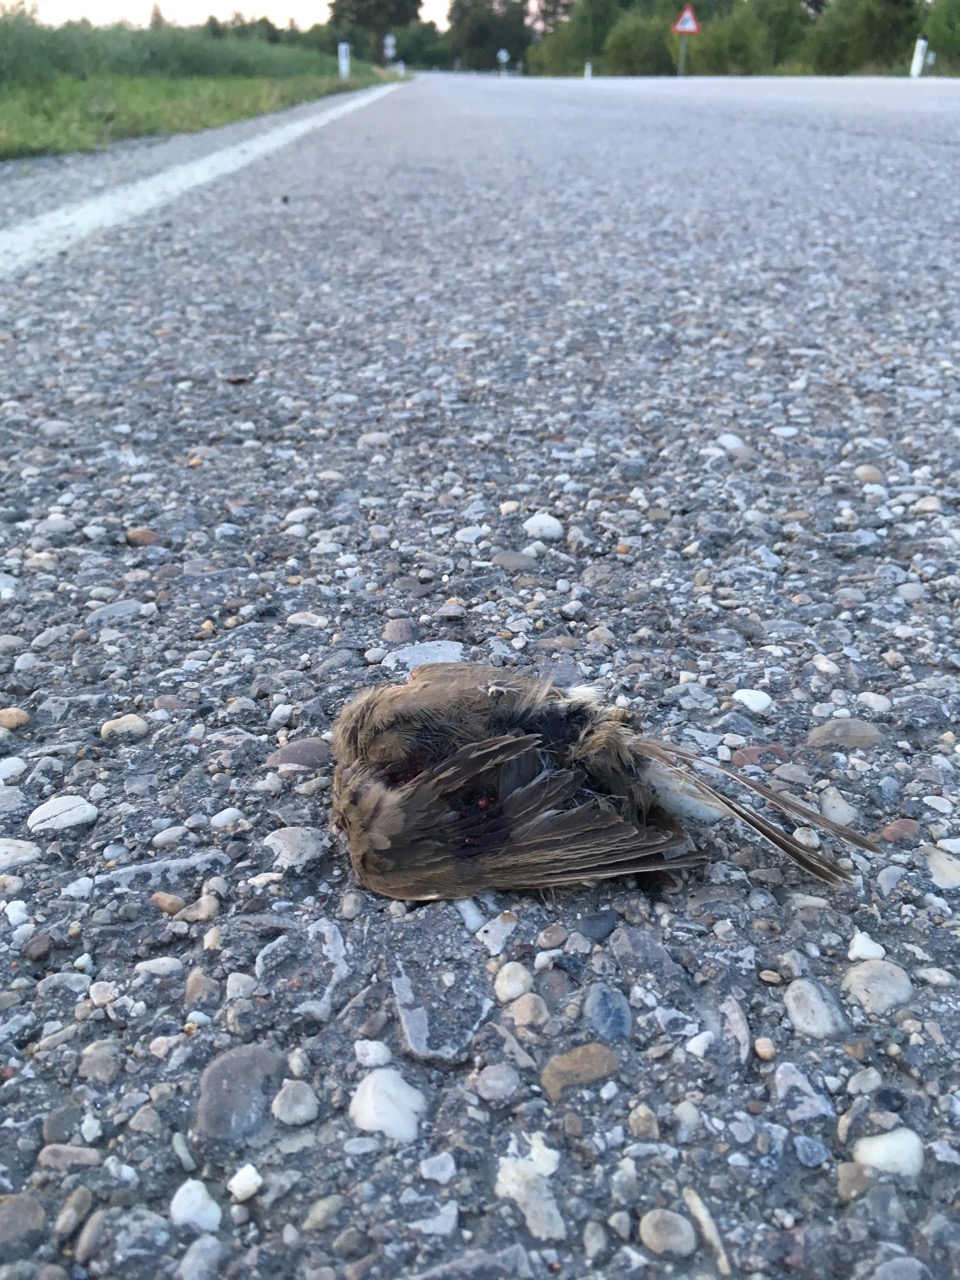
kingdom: Animalia
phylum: Chordata
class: Aves
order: Passeriformes
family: Passeridae
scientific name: Passeridae
